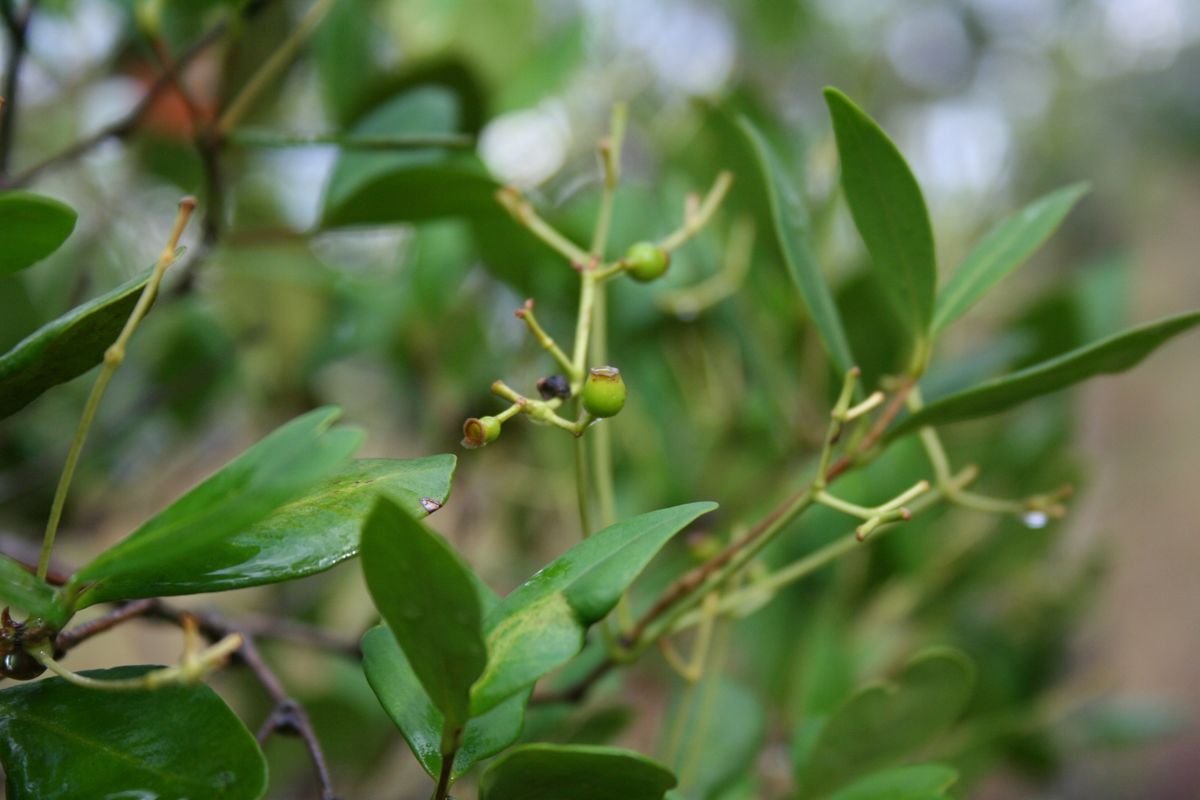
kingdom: Plantae
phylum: Tracheophyta
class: Magnoliopsida
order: Myrtales
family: Myrtaceae
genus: Myrcia
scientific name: Myrcia hondurensis
